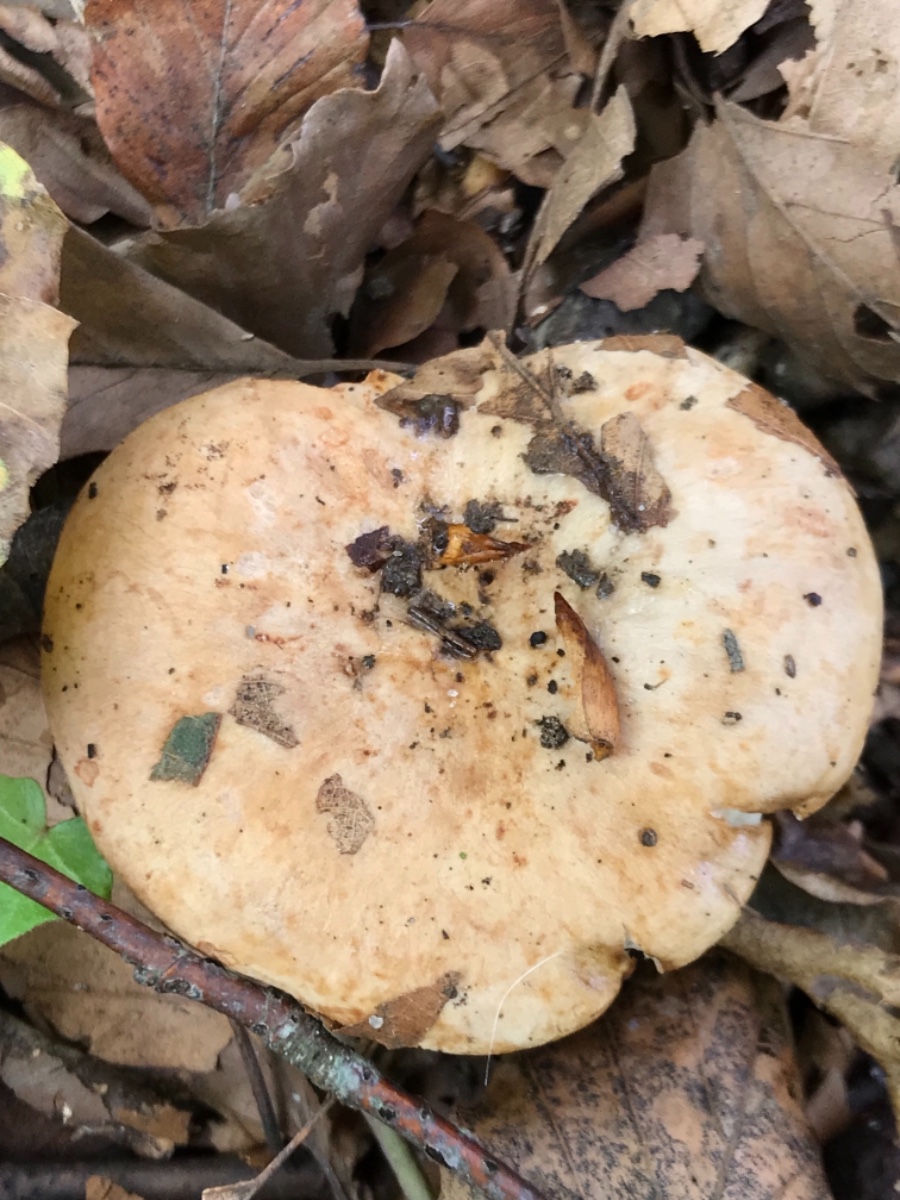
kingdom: Fungi
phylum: Basidiomycota
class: Agaricomycetes
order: Russulales
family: Russulaceae
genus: Lactarius
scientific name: Lactarius pallidus
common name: bleg mælkehat
